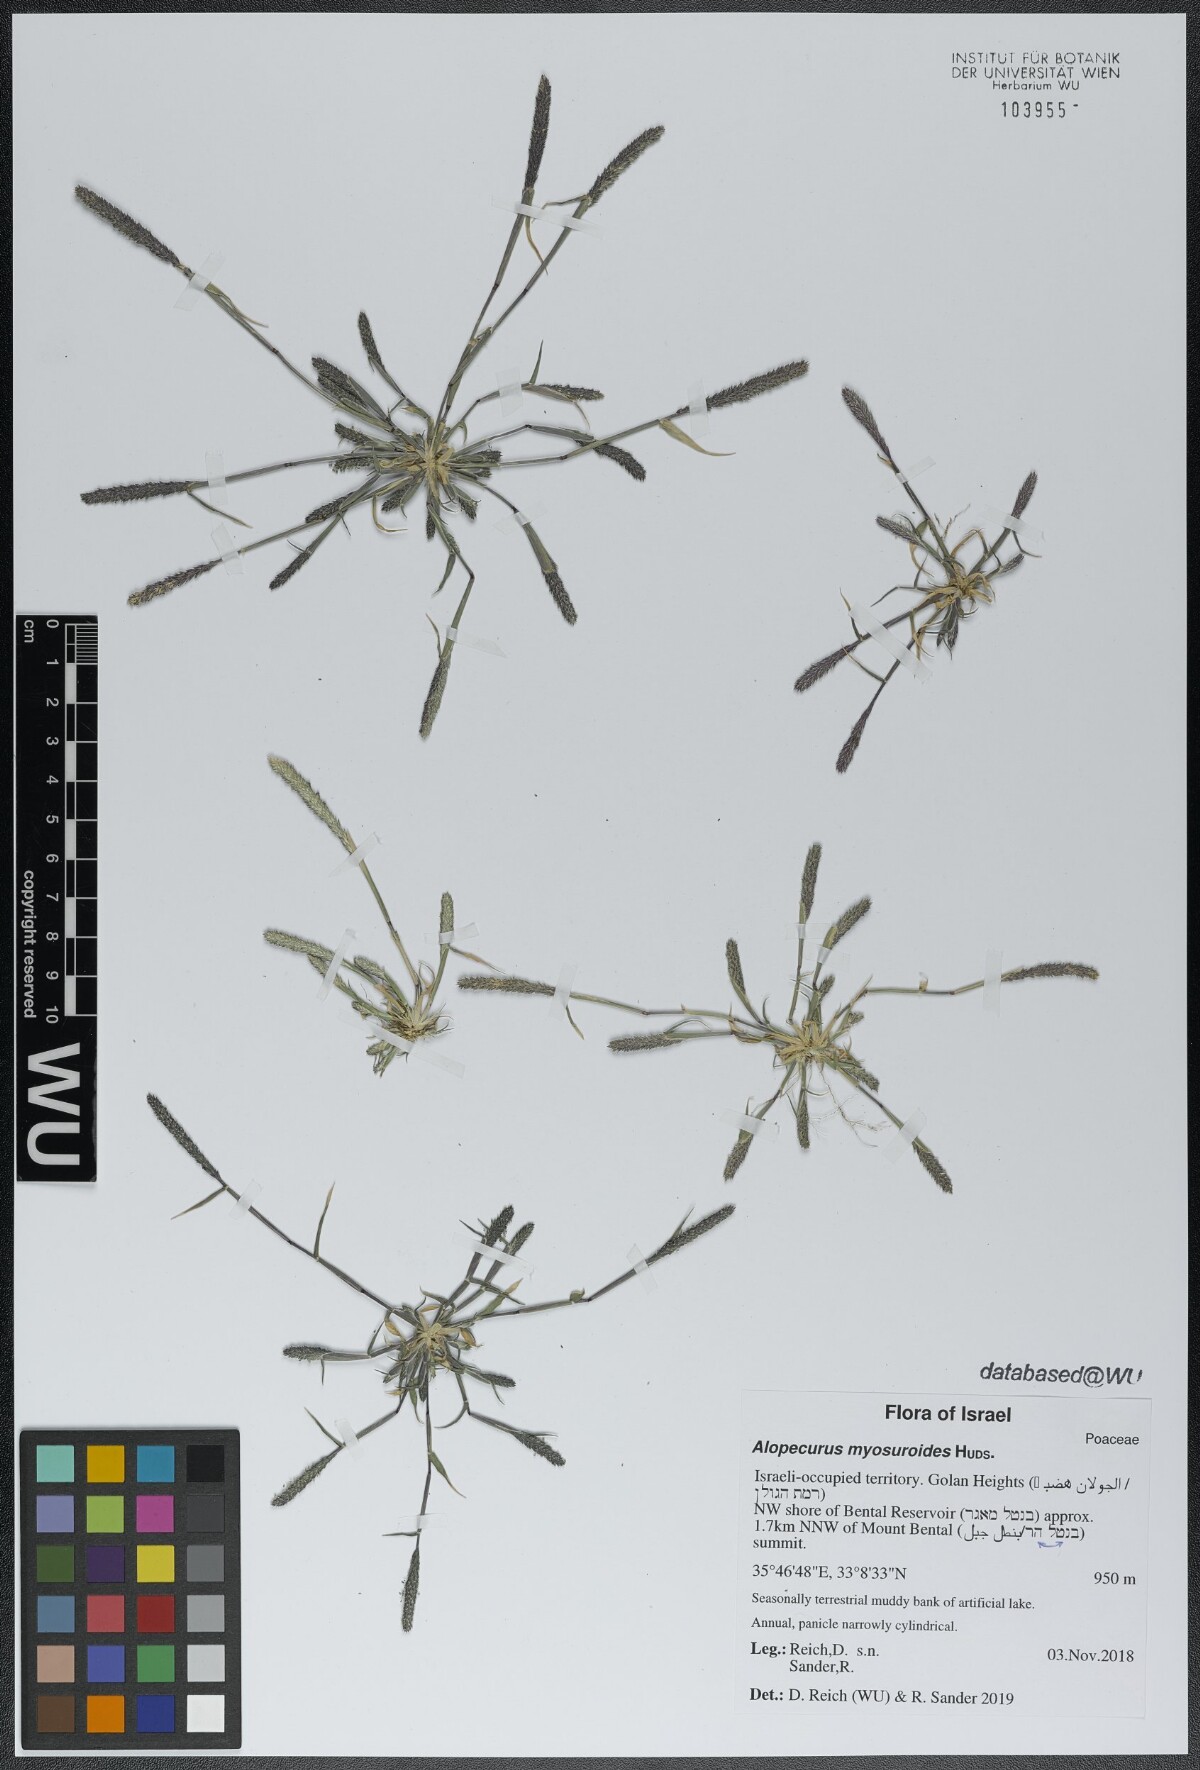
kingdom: Plantae
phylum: Tracheophyta
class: Liliopsida
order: Poales
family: Poaceae
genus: Alopecurus
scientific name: Alopecurus myosuroides
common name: Black-grass
